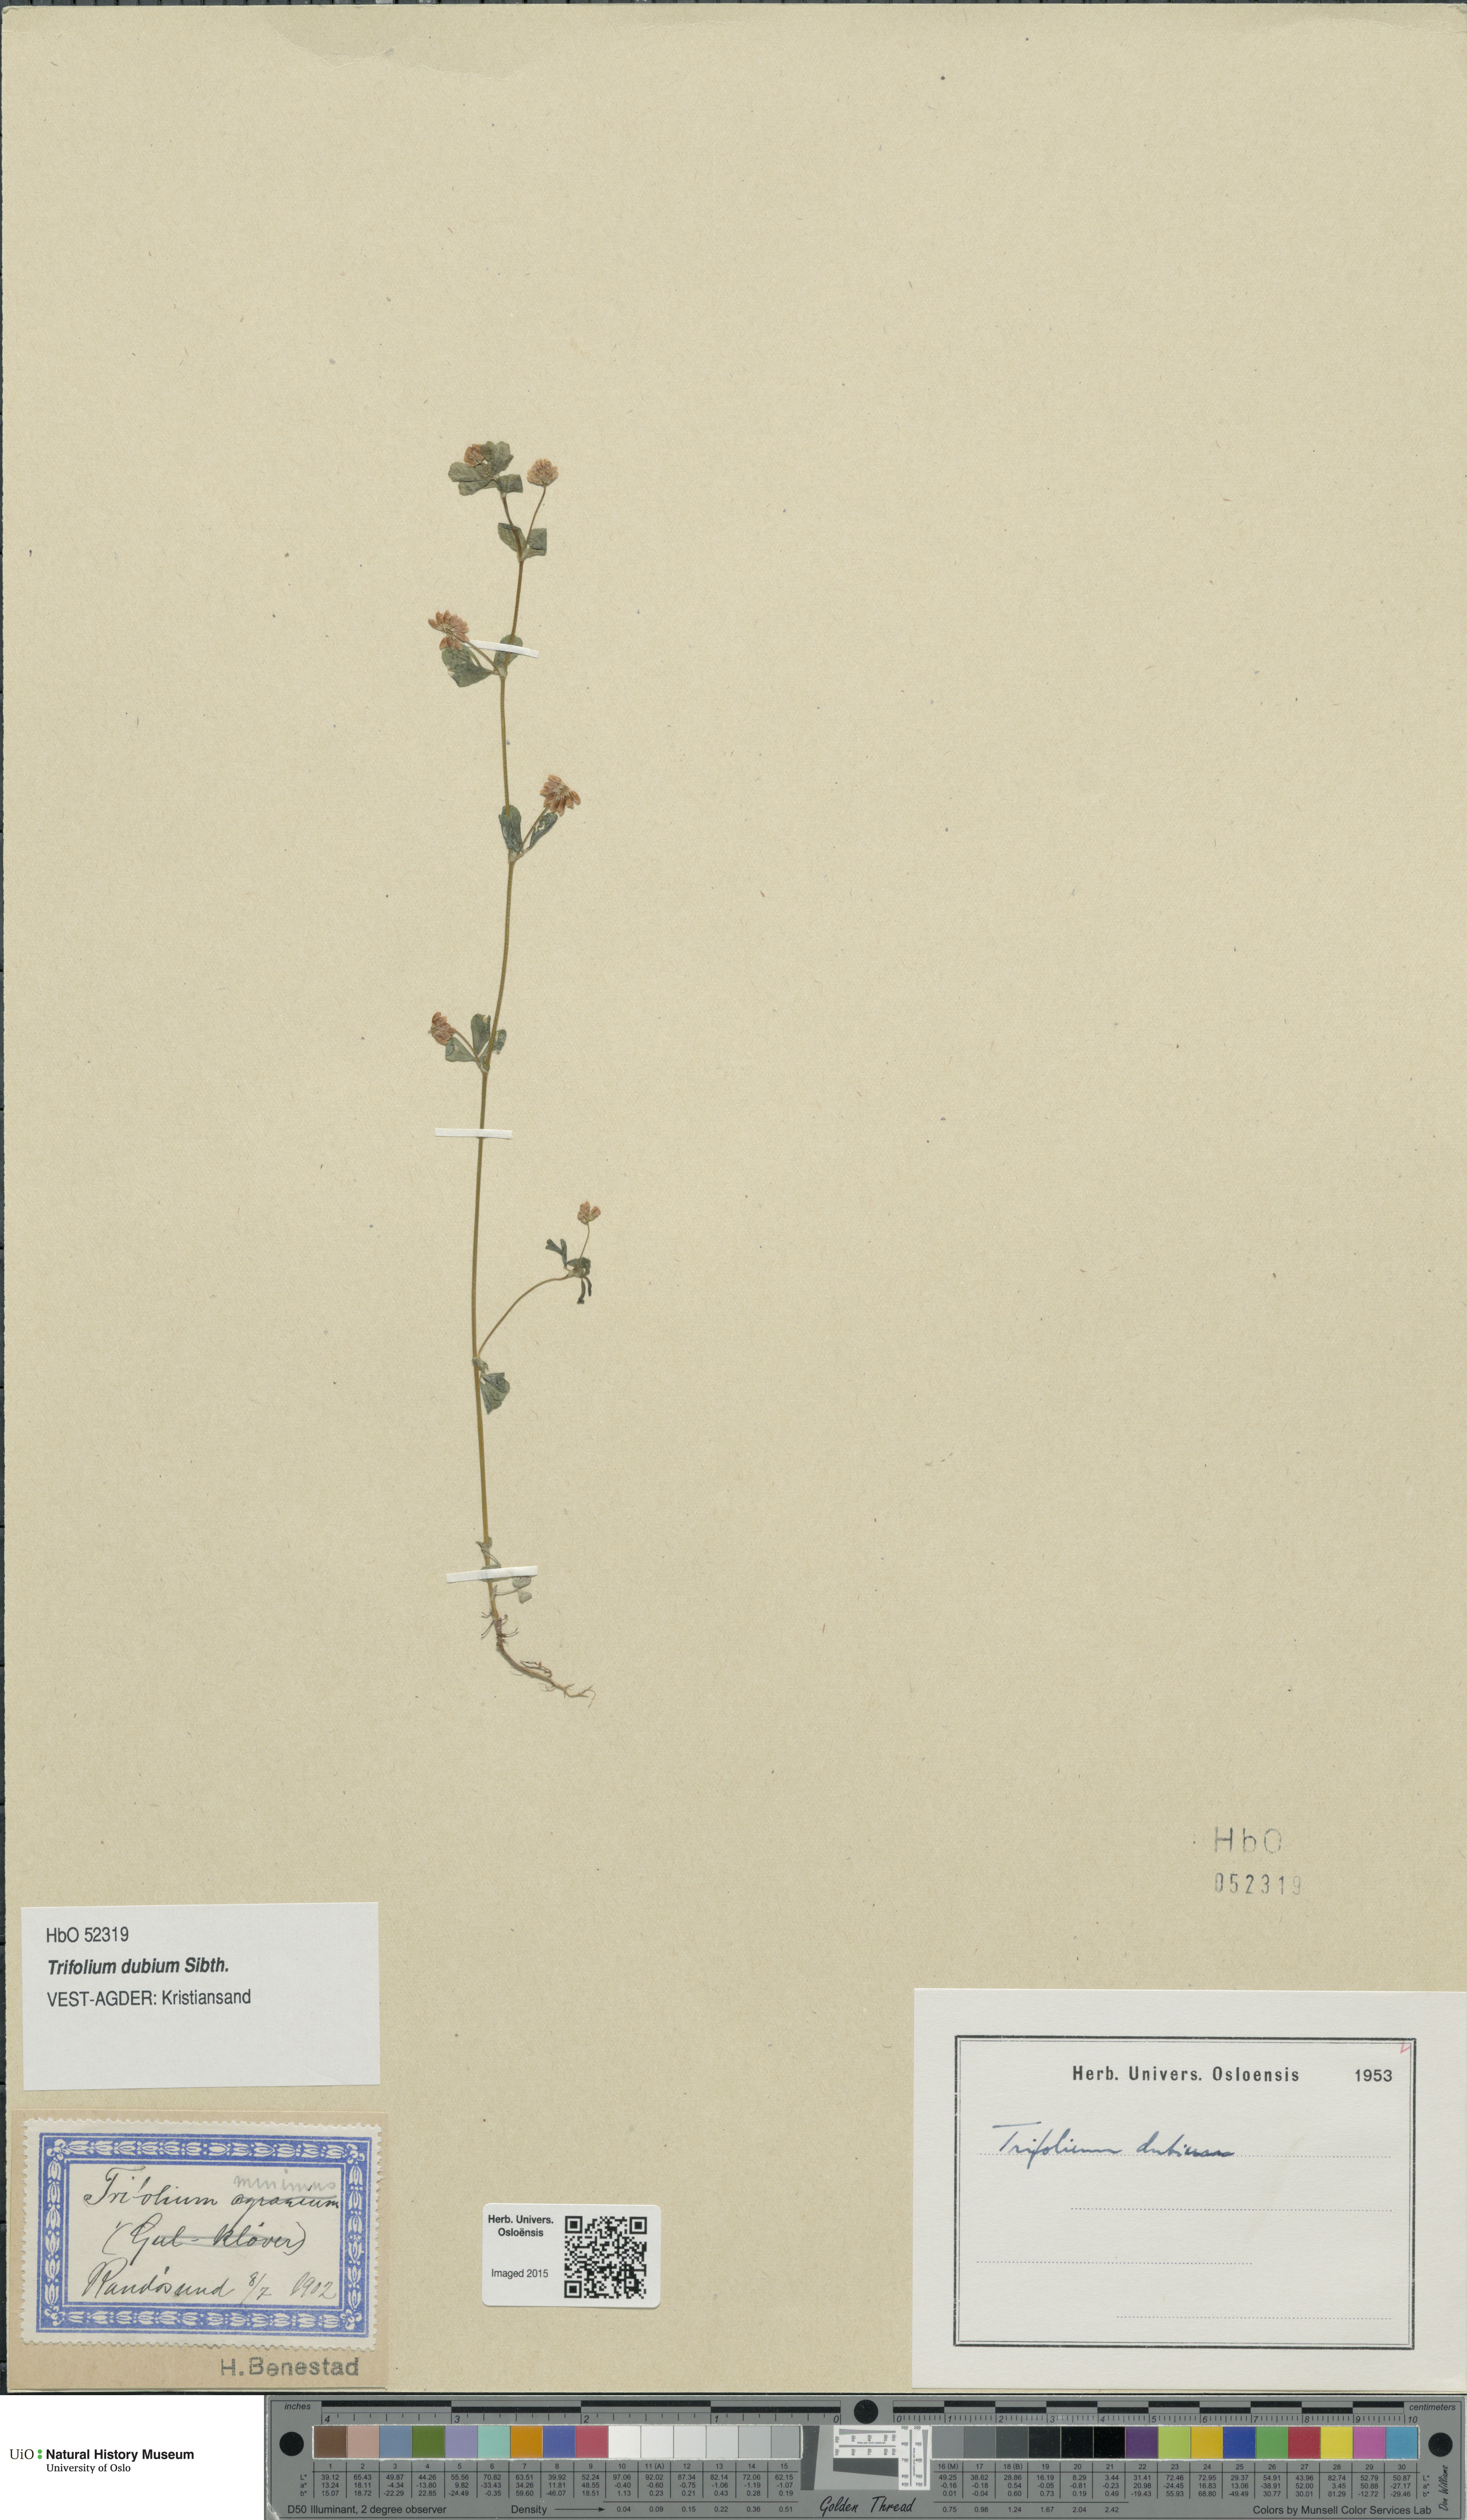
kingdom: Plantae
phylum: Tracheophyta
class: Magnoliopsida
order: Fabales
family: Fabaceae
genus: Trifolium
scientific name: Trifolium dubium
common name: Suckling clover
